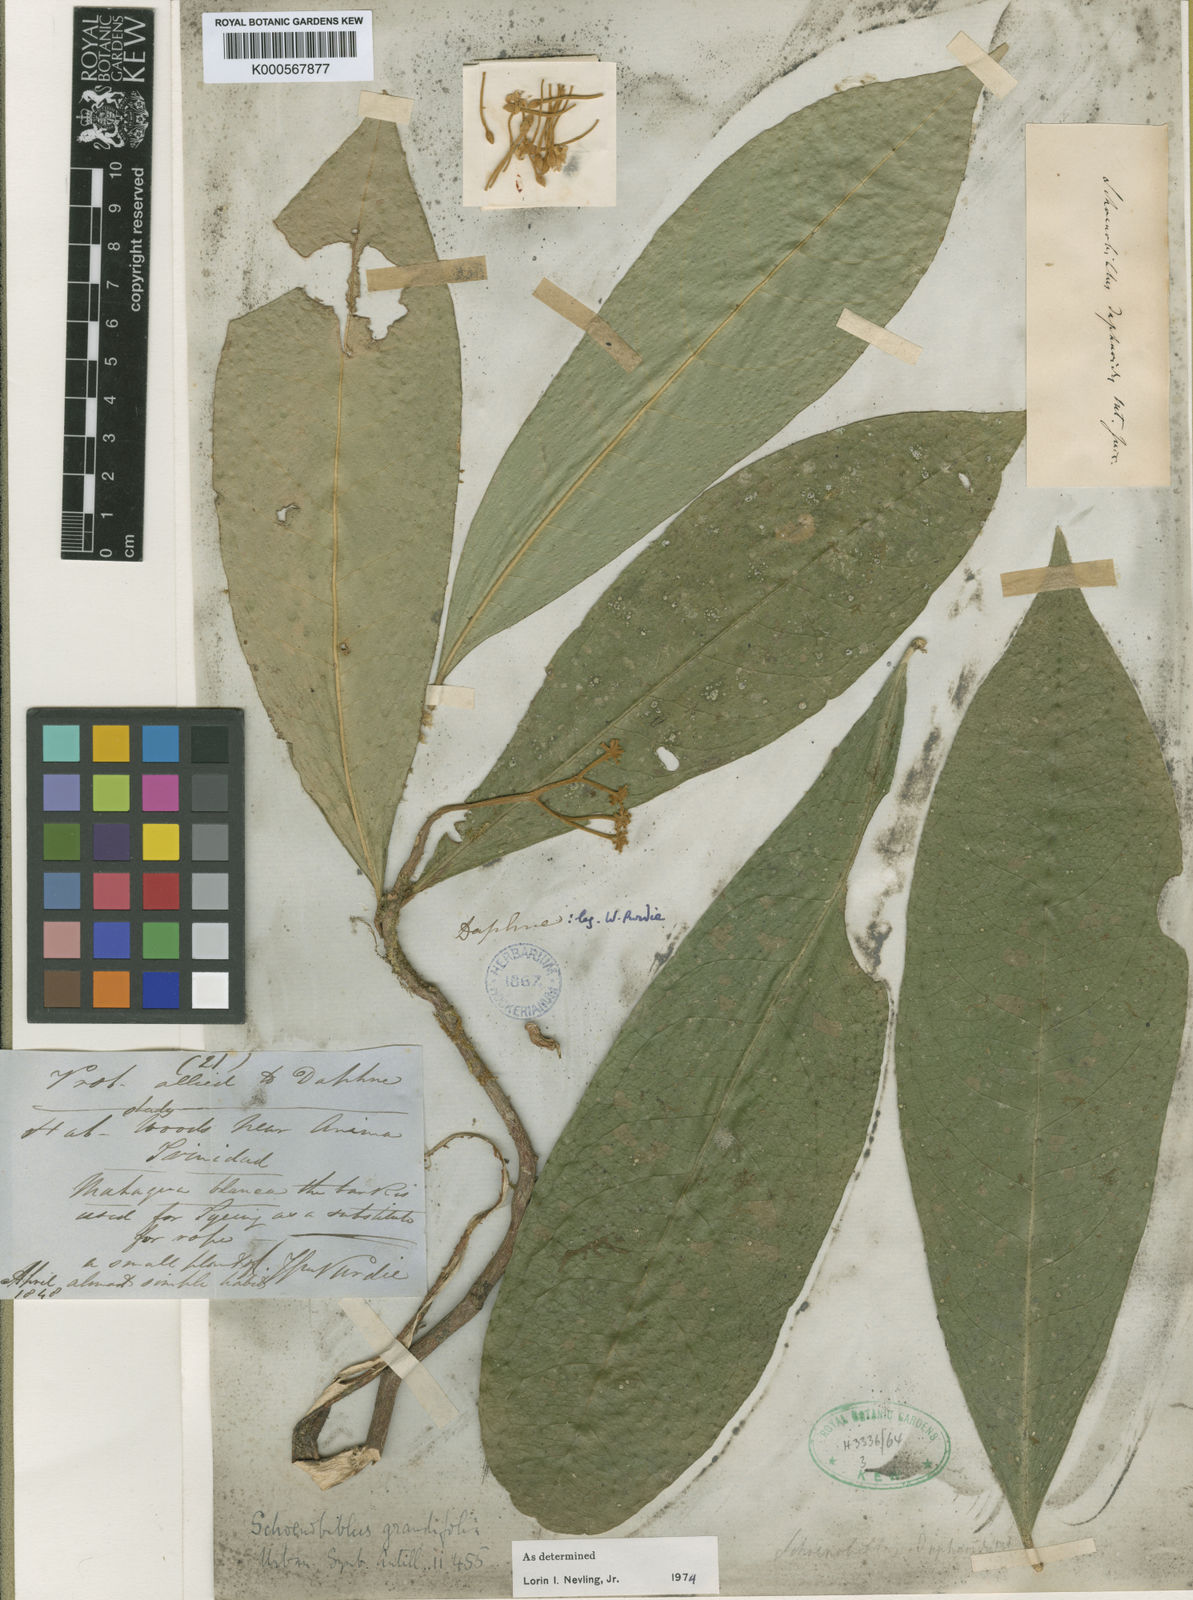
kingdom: Plantae
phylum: Tracheophyta
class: Magnoliopsida
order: Malvales
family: Thymelaeaceae
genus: Schoenobiblus
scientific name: Schoenobiblus grandifolia
